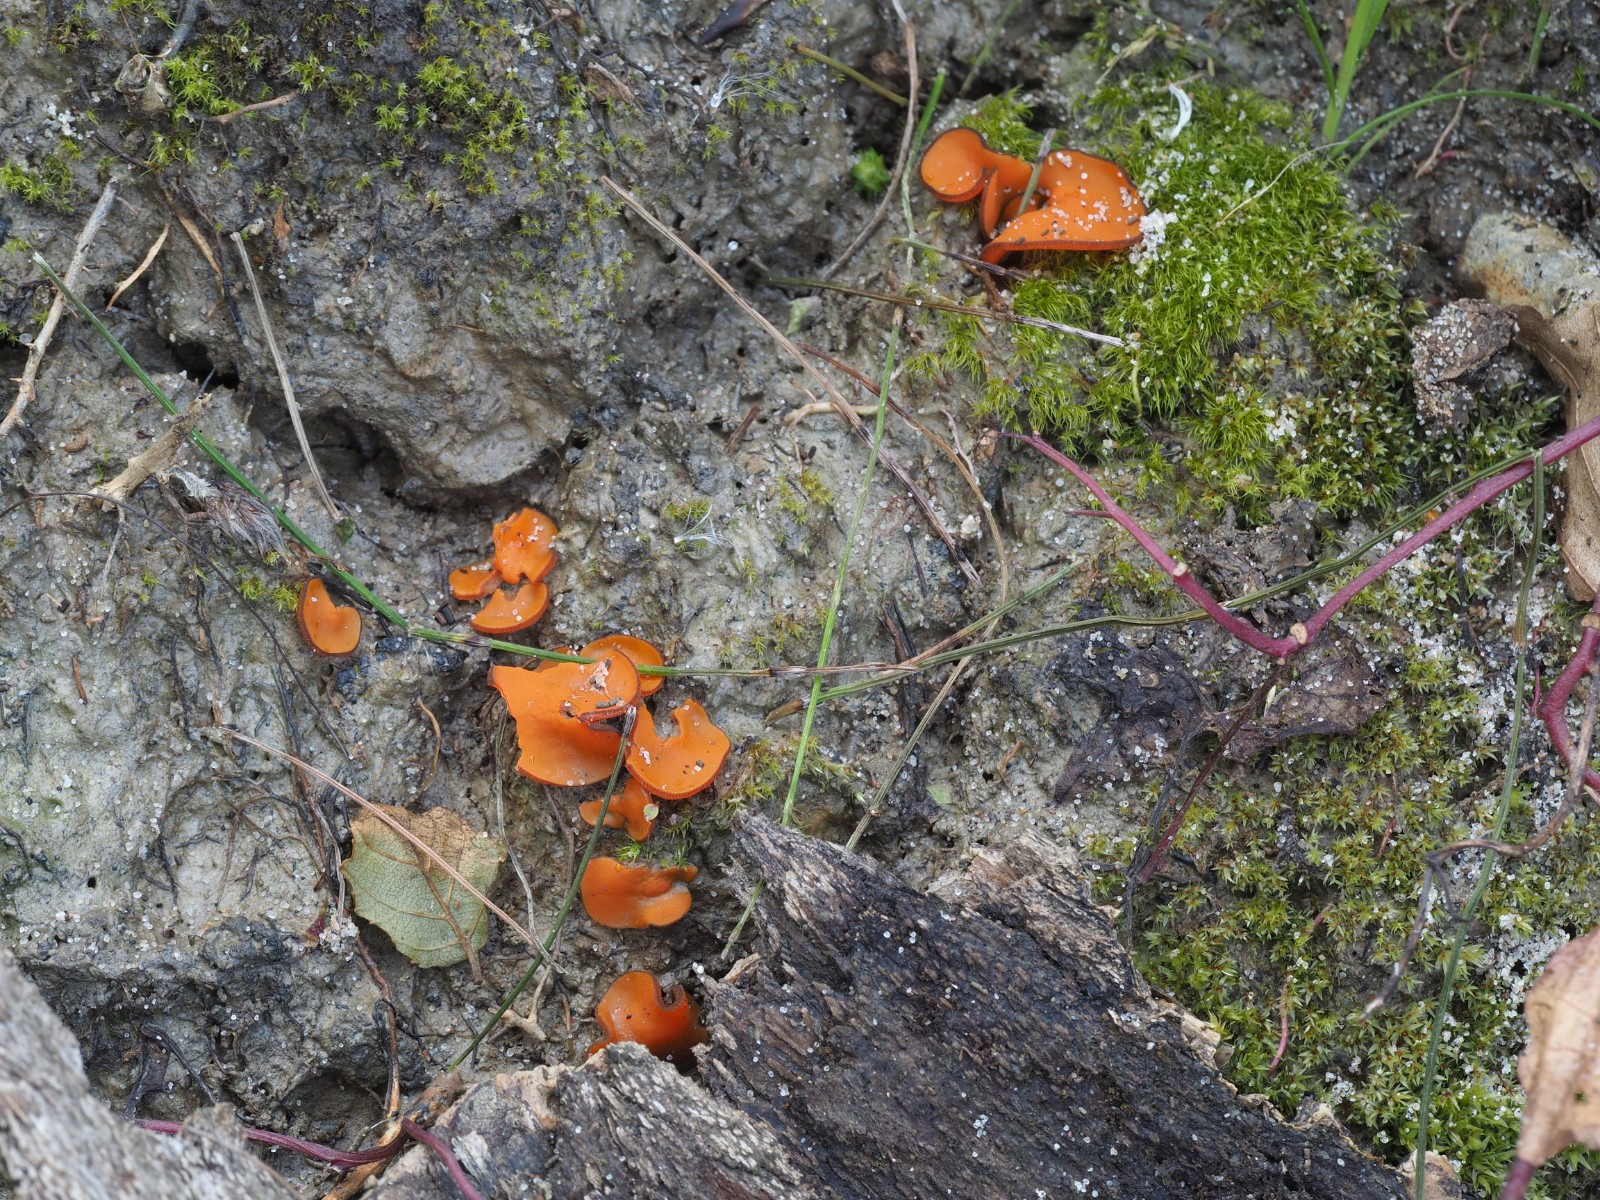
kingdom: Fungi
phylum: Ascomycota
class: Pezizomycetes
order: Pezizales
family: Pyronemataceae
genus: Melastiza
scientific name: Melastiza cornubiensis
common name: mørkrandet rødbæger
